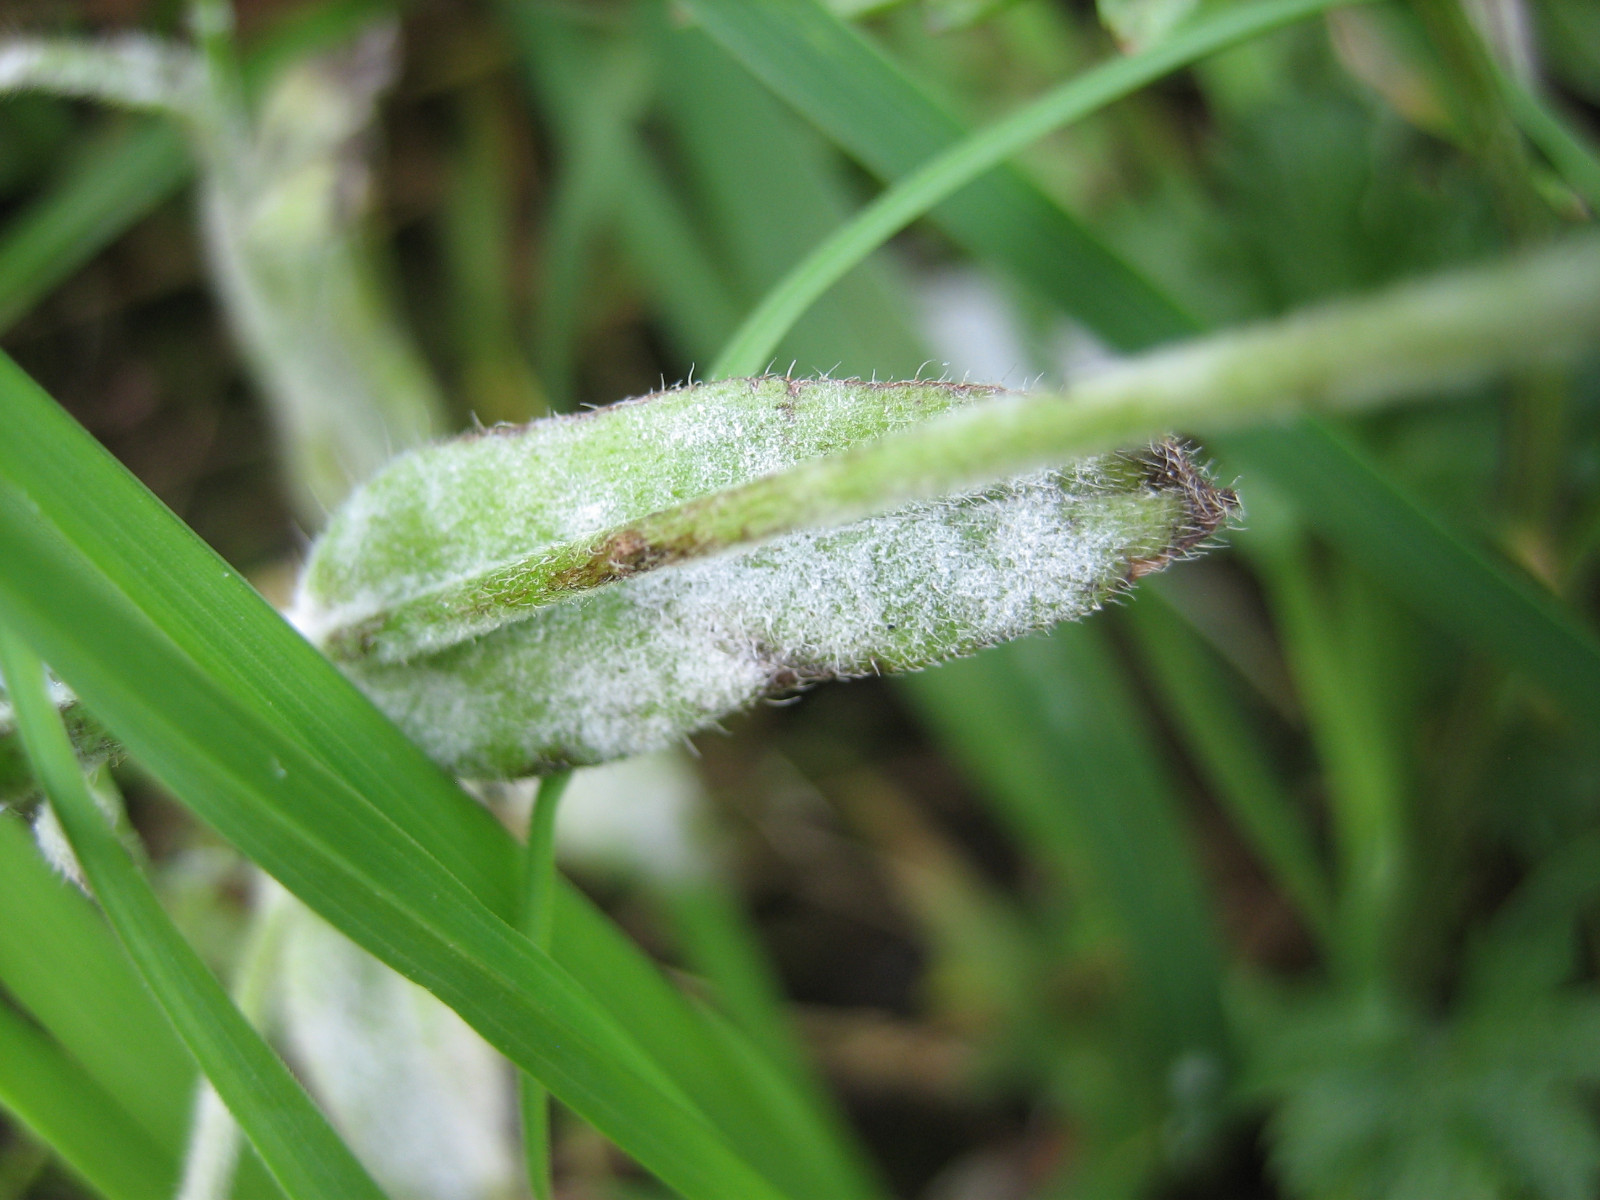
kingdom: Fungi
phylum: Ascomycota
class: Leotiomycetes
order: Helotiales
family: Erysiphaceae
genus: Golovinomyces
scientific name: Golovinomyces asperifolii
